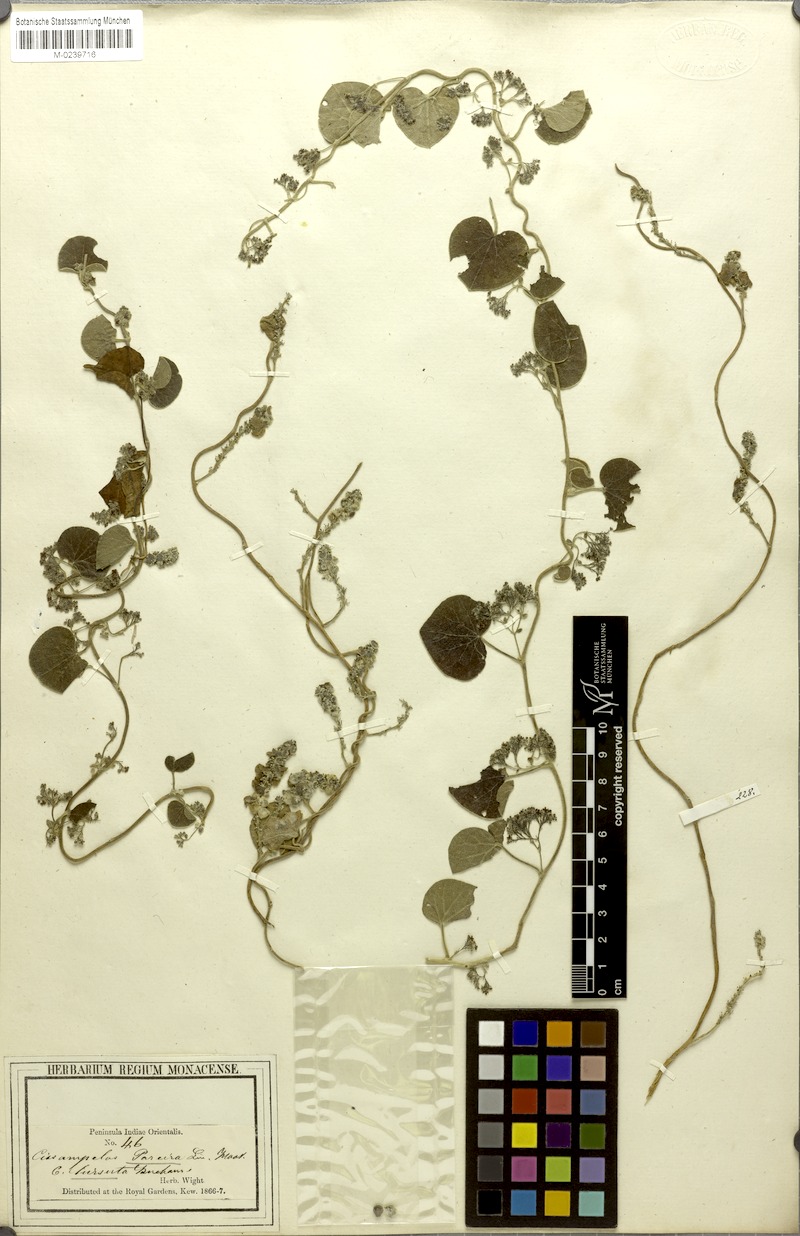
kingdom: Plantae
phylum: Tracheophyta
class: Magnoliopsida
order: Ranunculales
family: Menispermaceae
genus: Cissampelos
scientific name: Cissampelos pareira
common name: Velvetleaf
